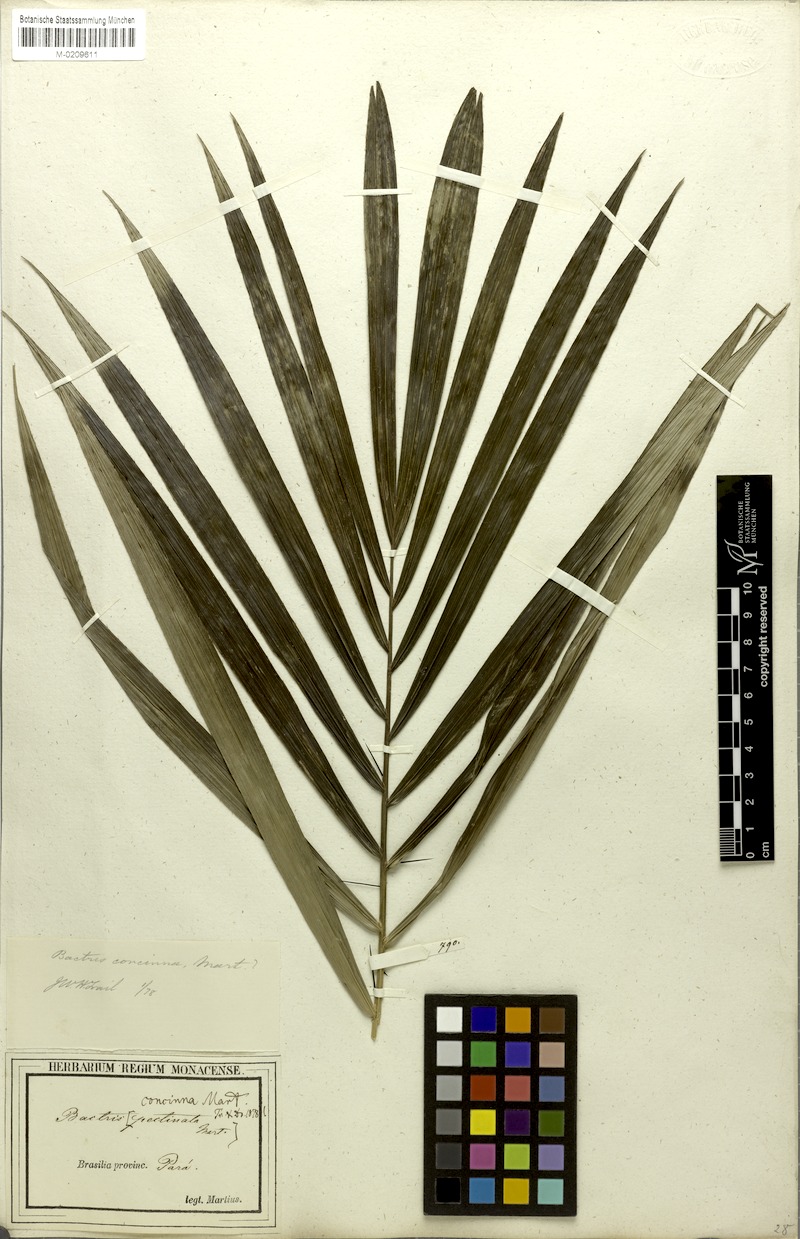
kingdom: Plantae
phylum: Tracheophyta
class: Liliopsida
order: Arecales
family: Arecaceae
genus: Bactris
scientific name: Bactris concinna
